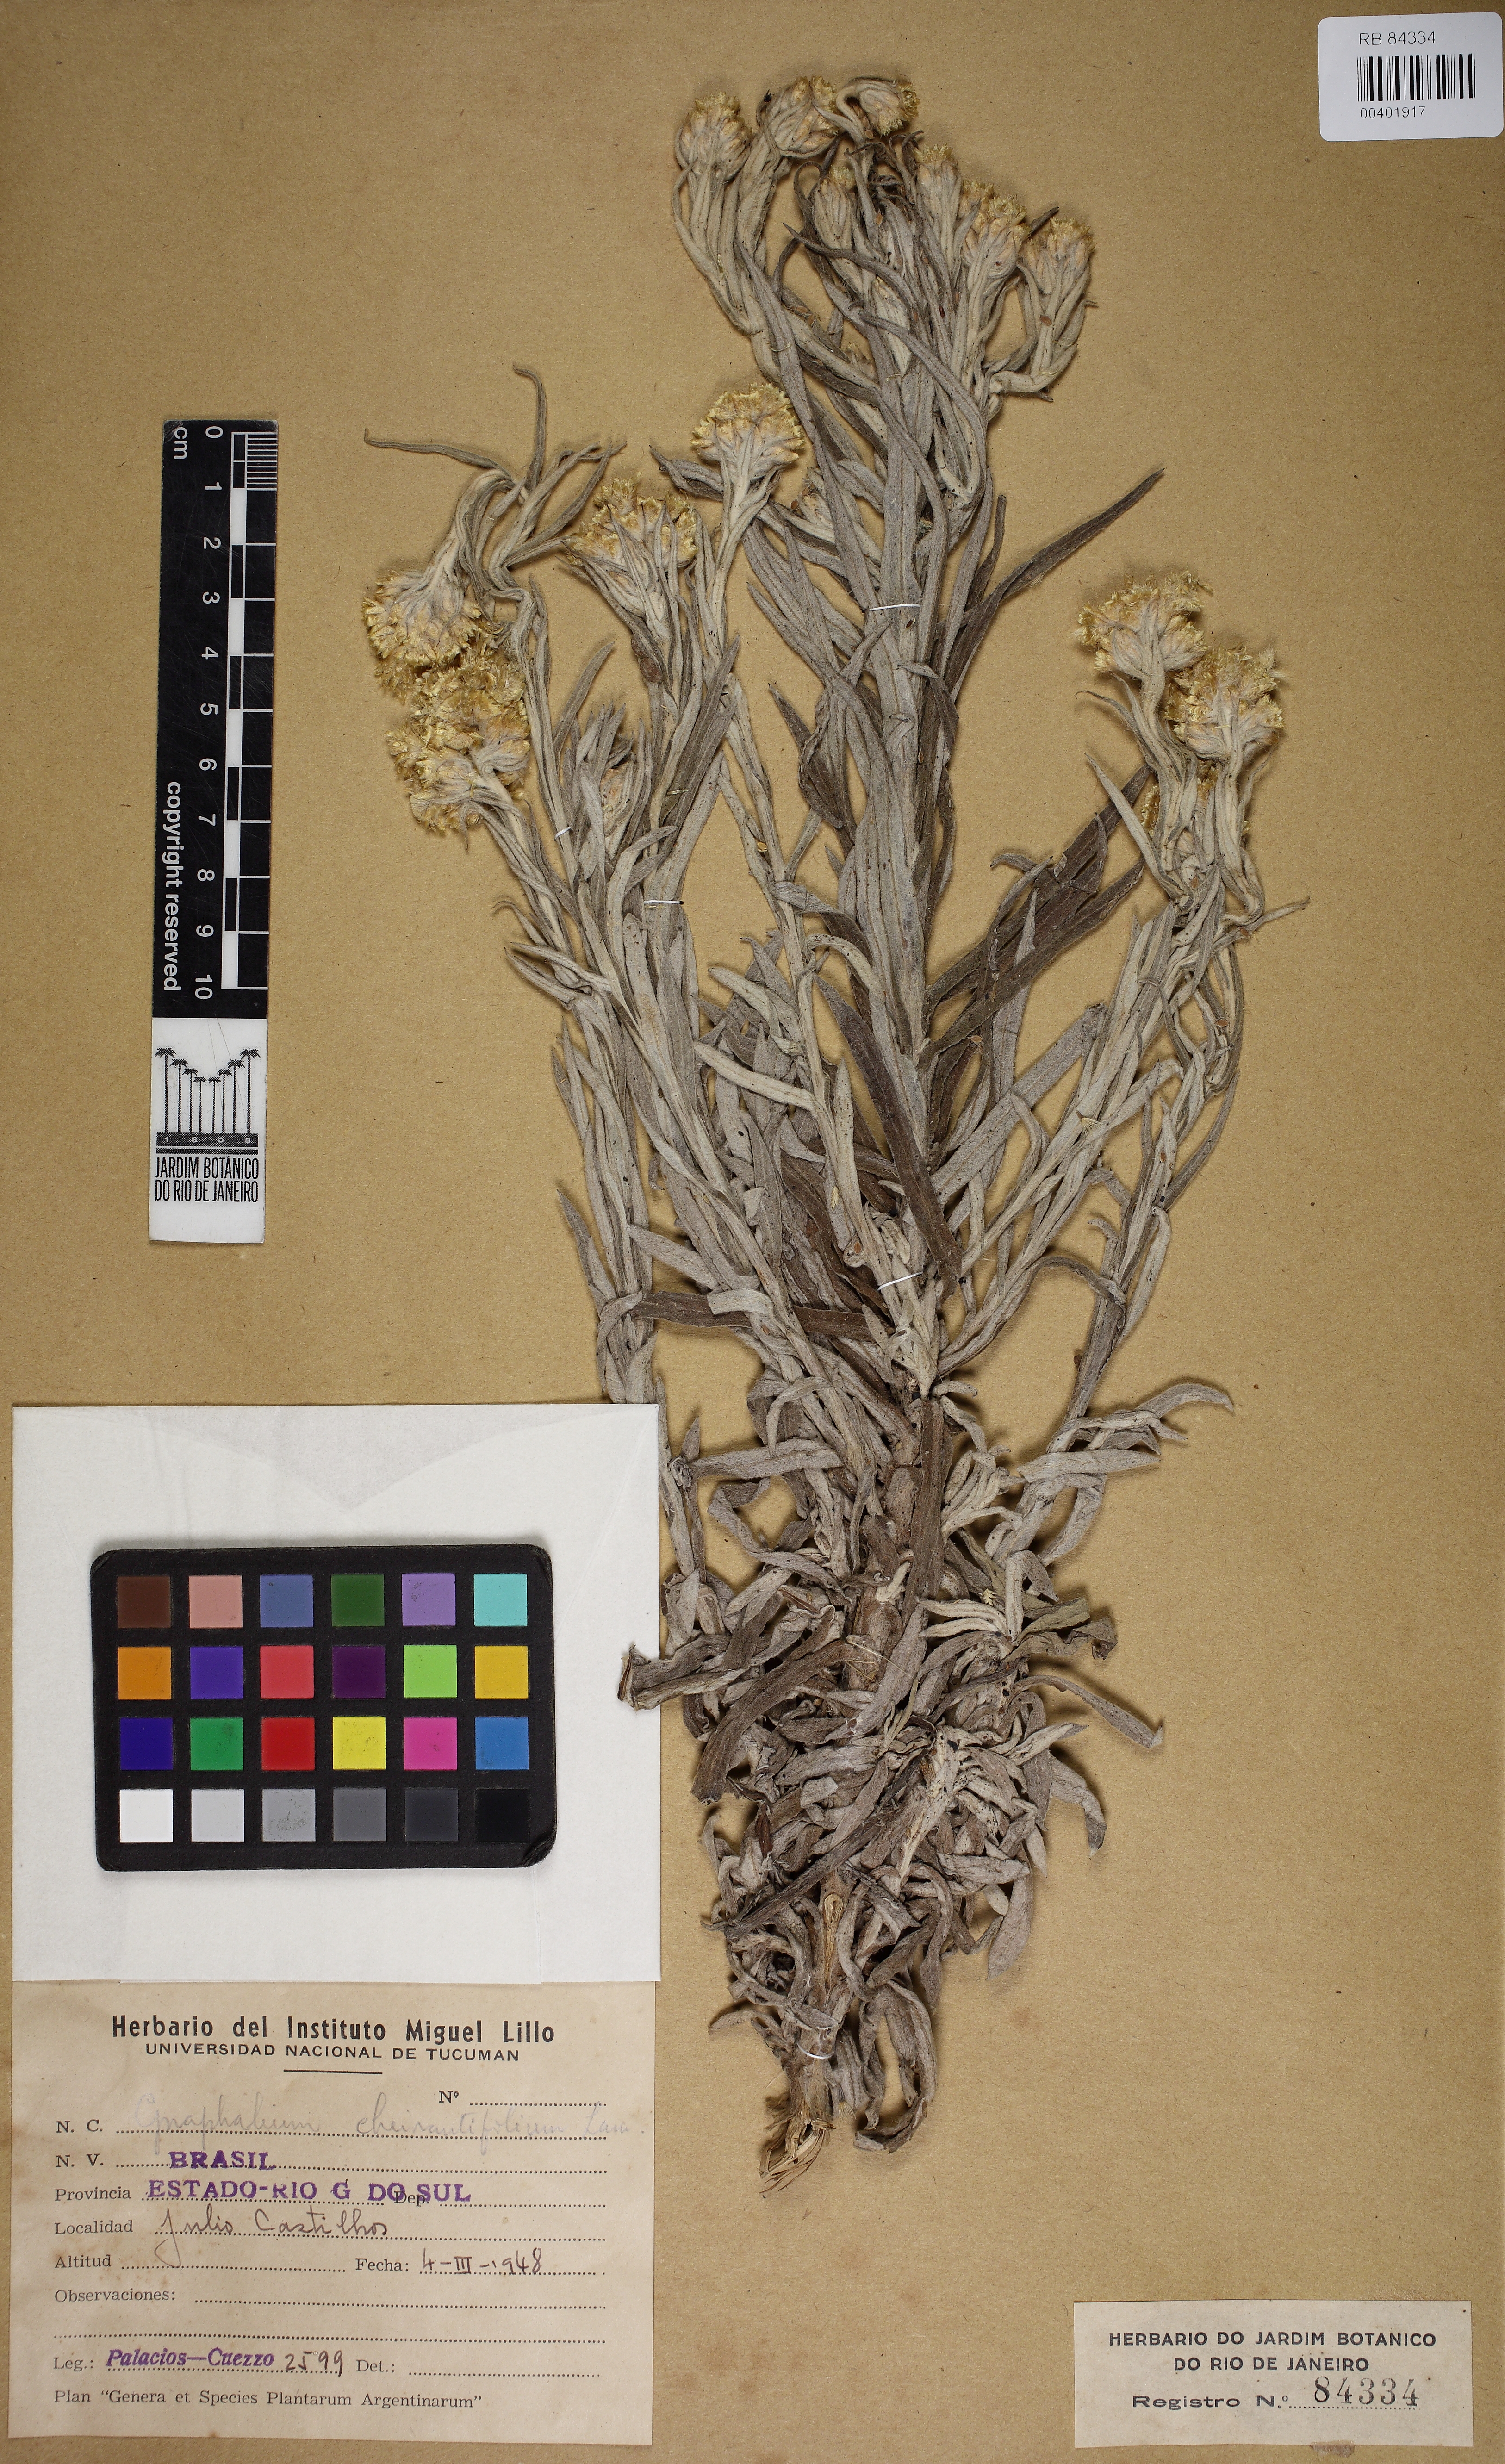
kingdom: Plantae
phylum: Tracheophyta
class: Magnoliopsida
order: Asterales
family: Asteraceae
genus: Pseudognaphalium
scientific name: Pseudognaphalium cheiranthifolium
